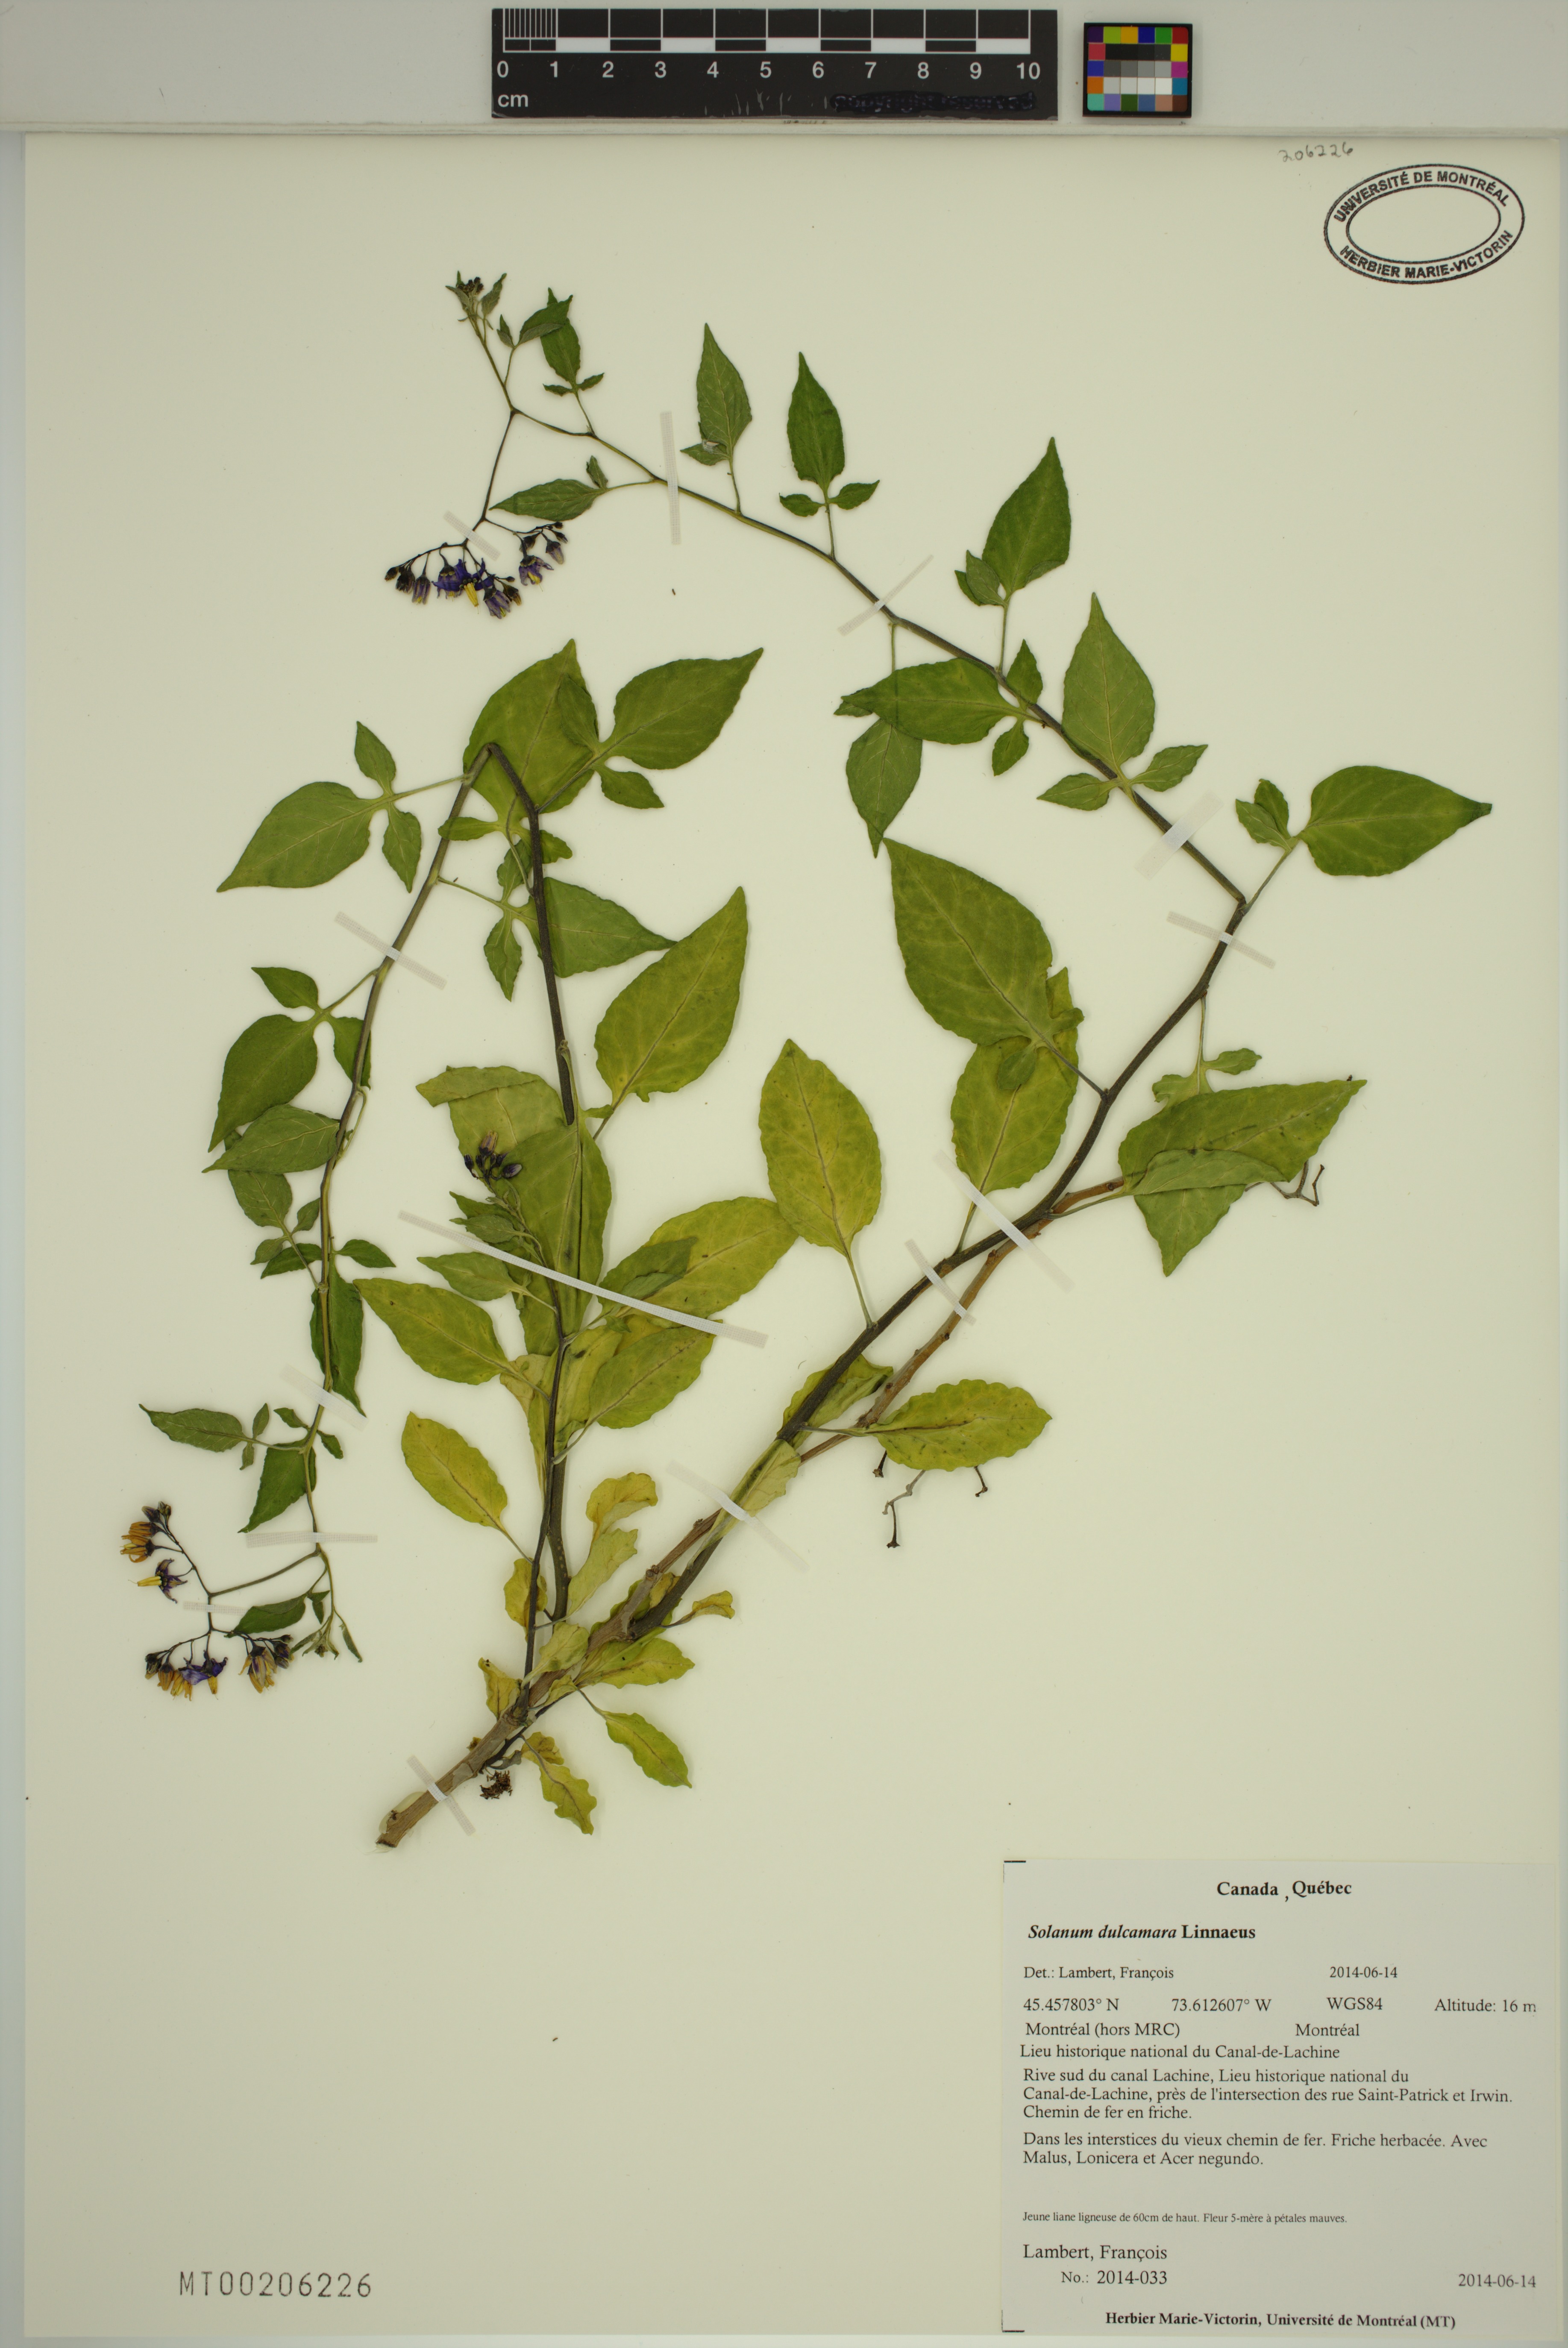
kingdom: Plantae
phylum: Tracheophyta
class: Magnoliopsida
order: Solanales
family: Solanaceae
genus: Solanum
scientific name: Solanum dulcamara
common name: Climbing nightshade
